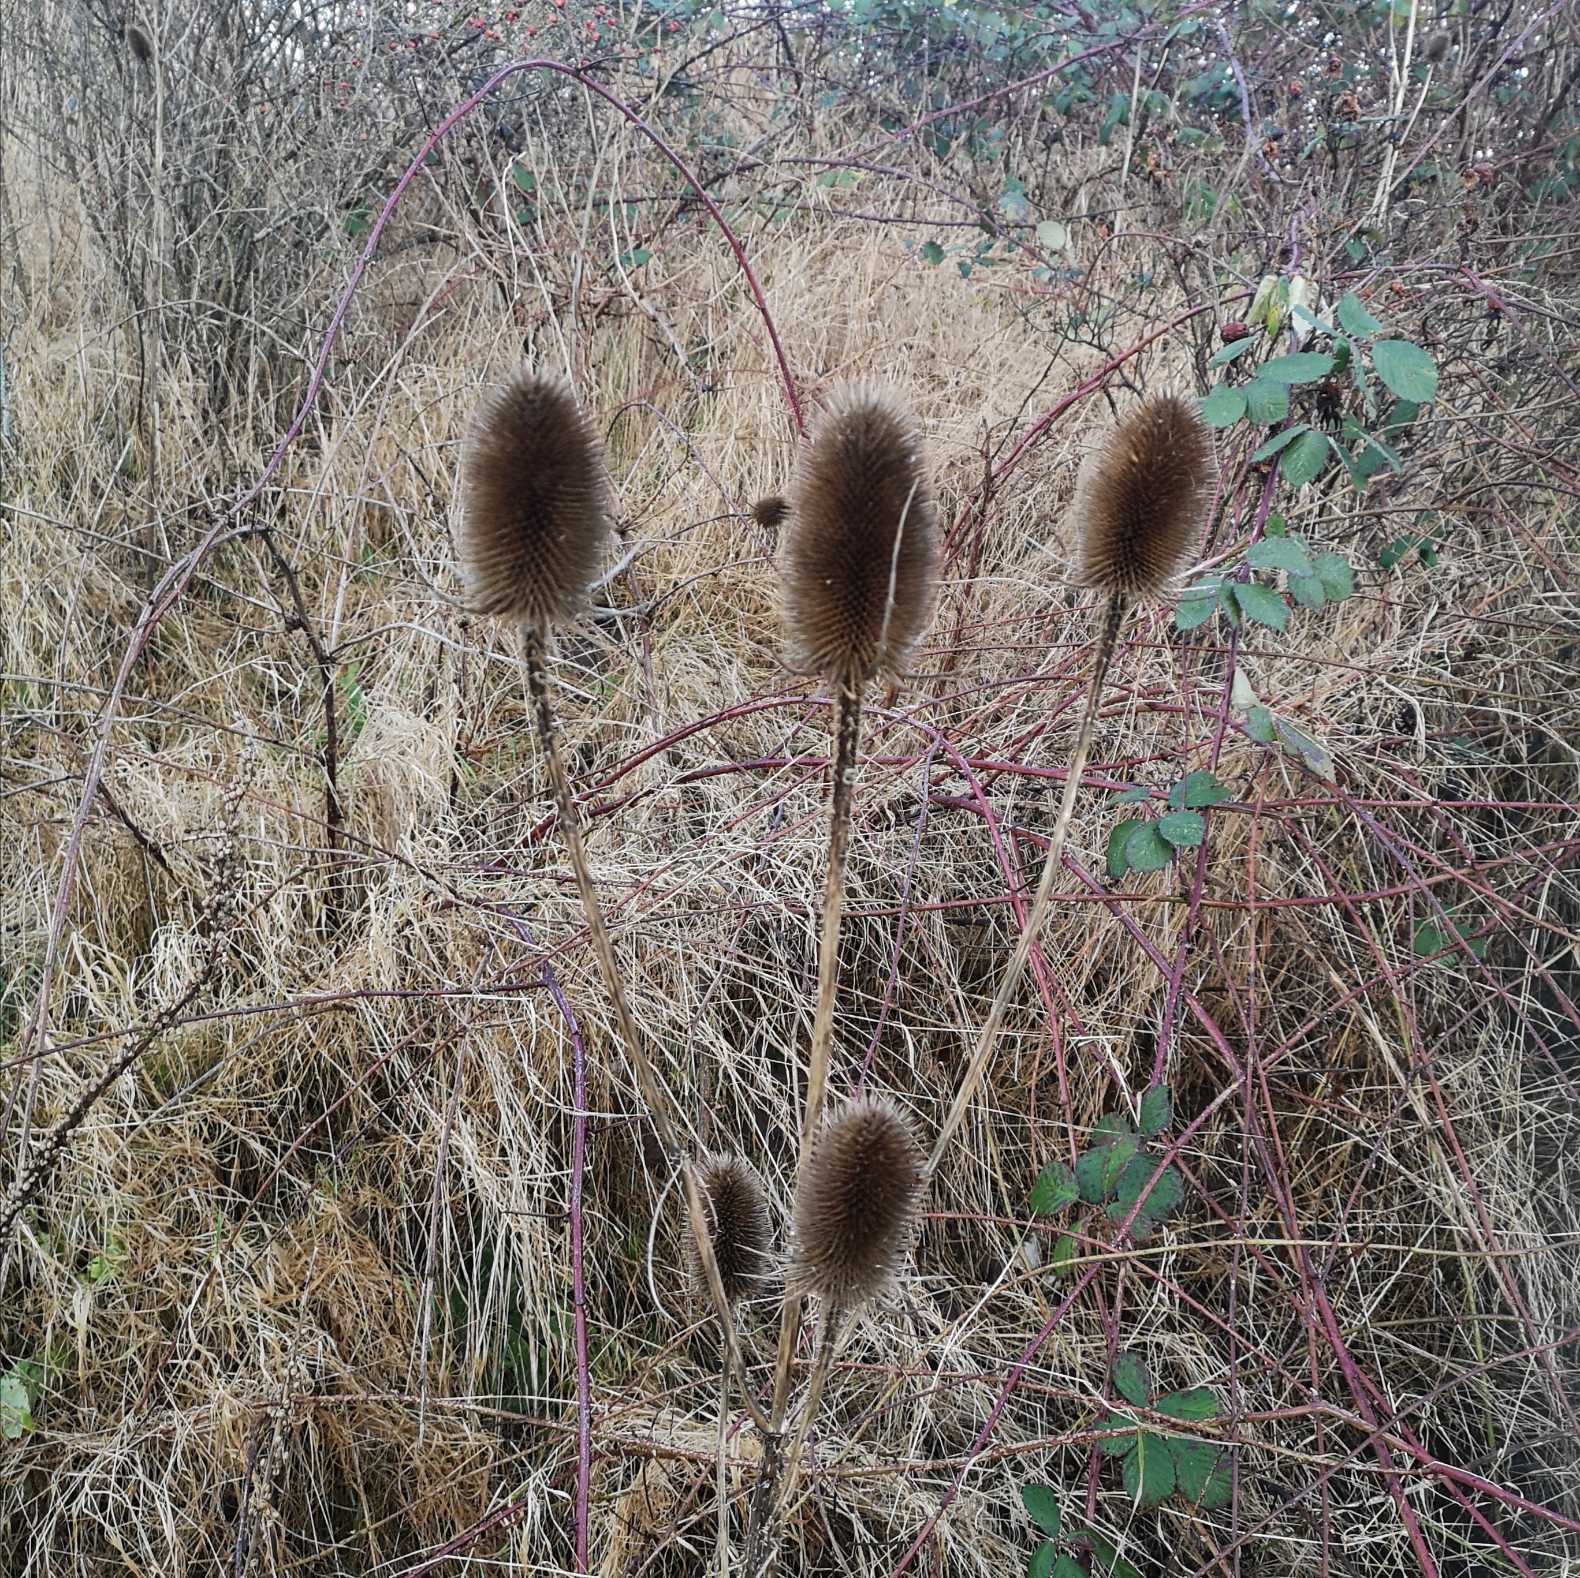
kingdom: Plantae
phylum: Tracheophyta
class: Magnoliopsida
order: Dipsacales
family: Caprifoliaceae
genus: Dipsacus
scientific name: Dipsacus fullonum
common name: Gærde-kartebolle
